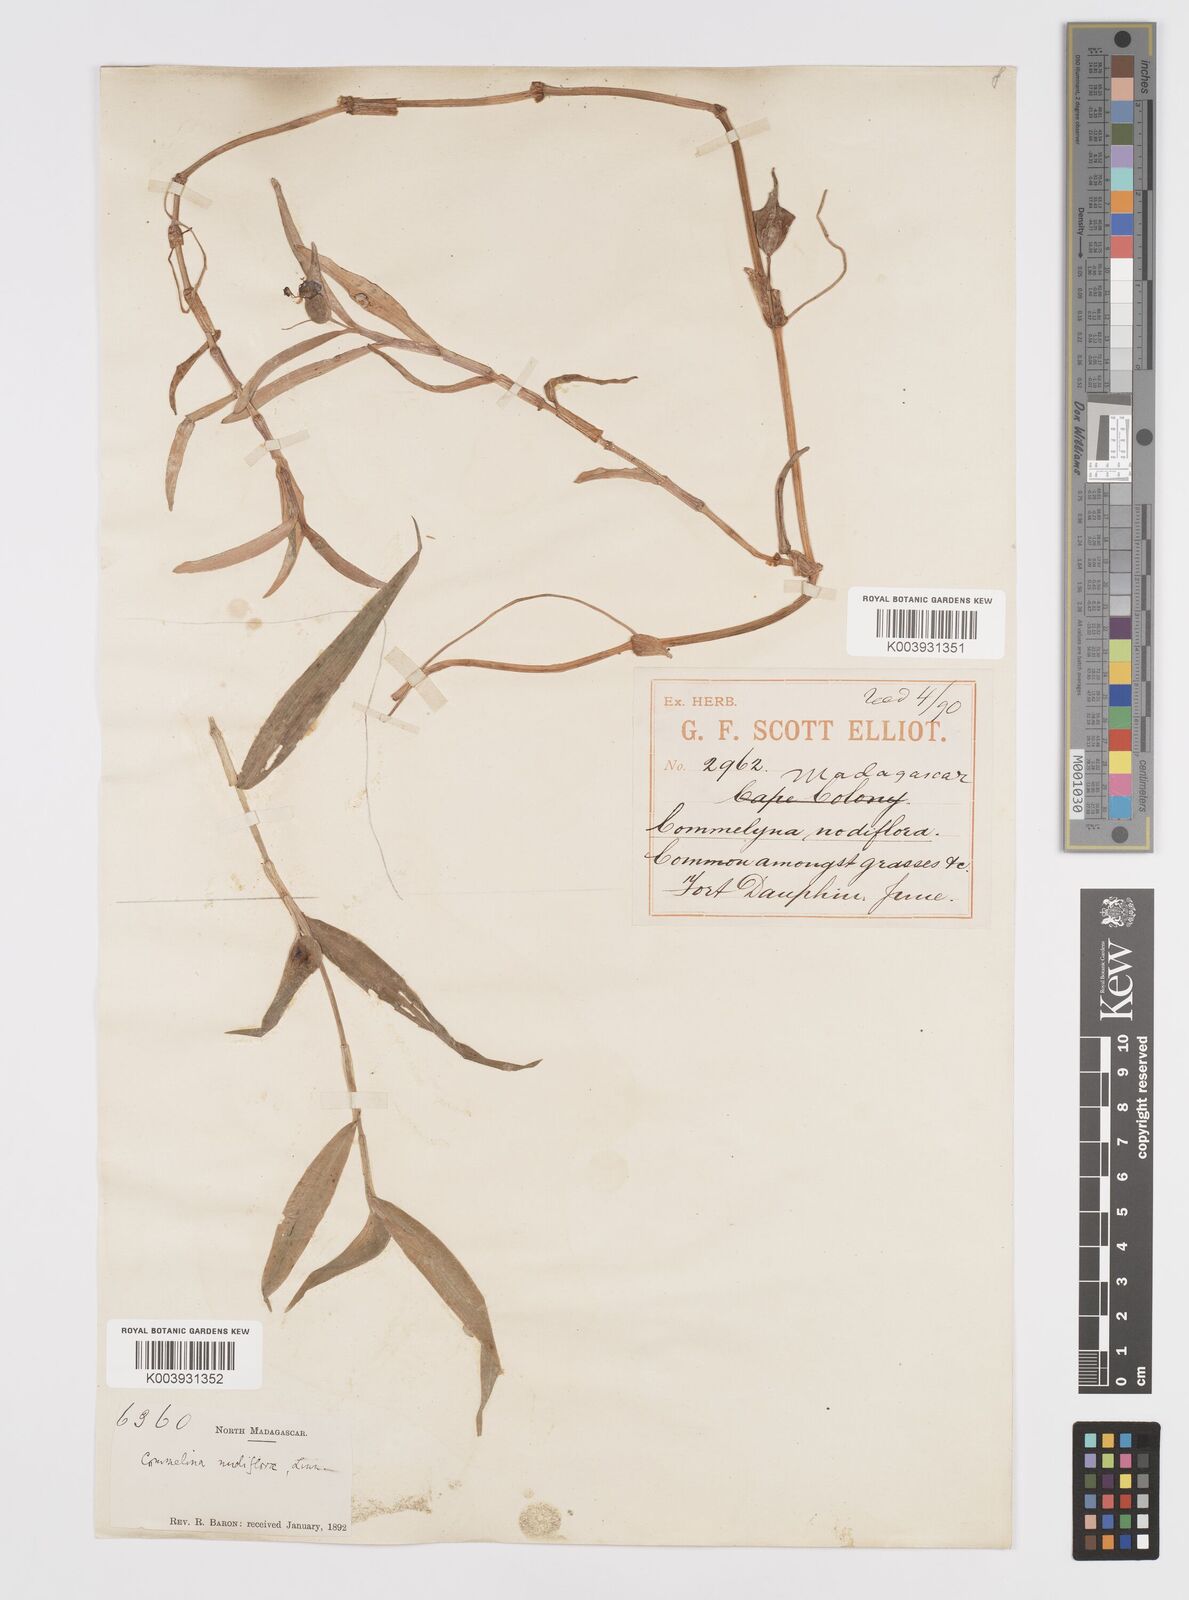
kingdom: Plantae
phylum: Tracheophyta
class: Liliopsida
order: Commelinales
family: Commelinaceae
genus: Murdannia
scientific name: Murdannia nudiflora
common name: Nakedstem dewflower
